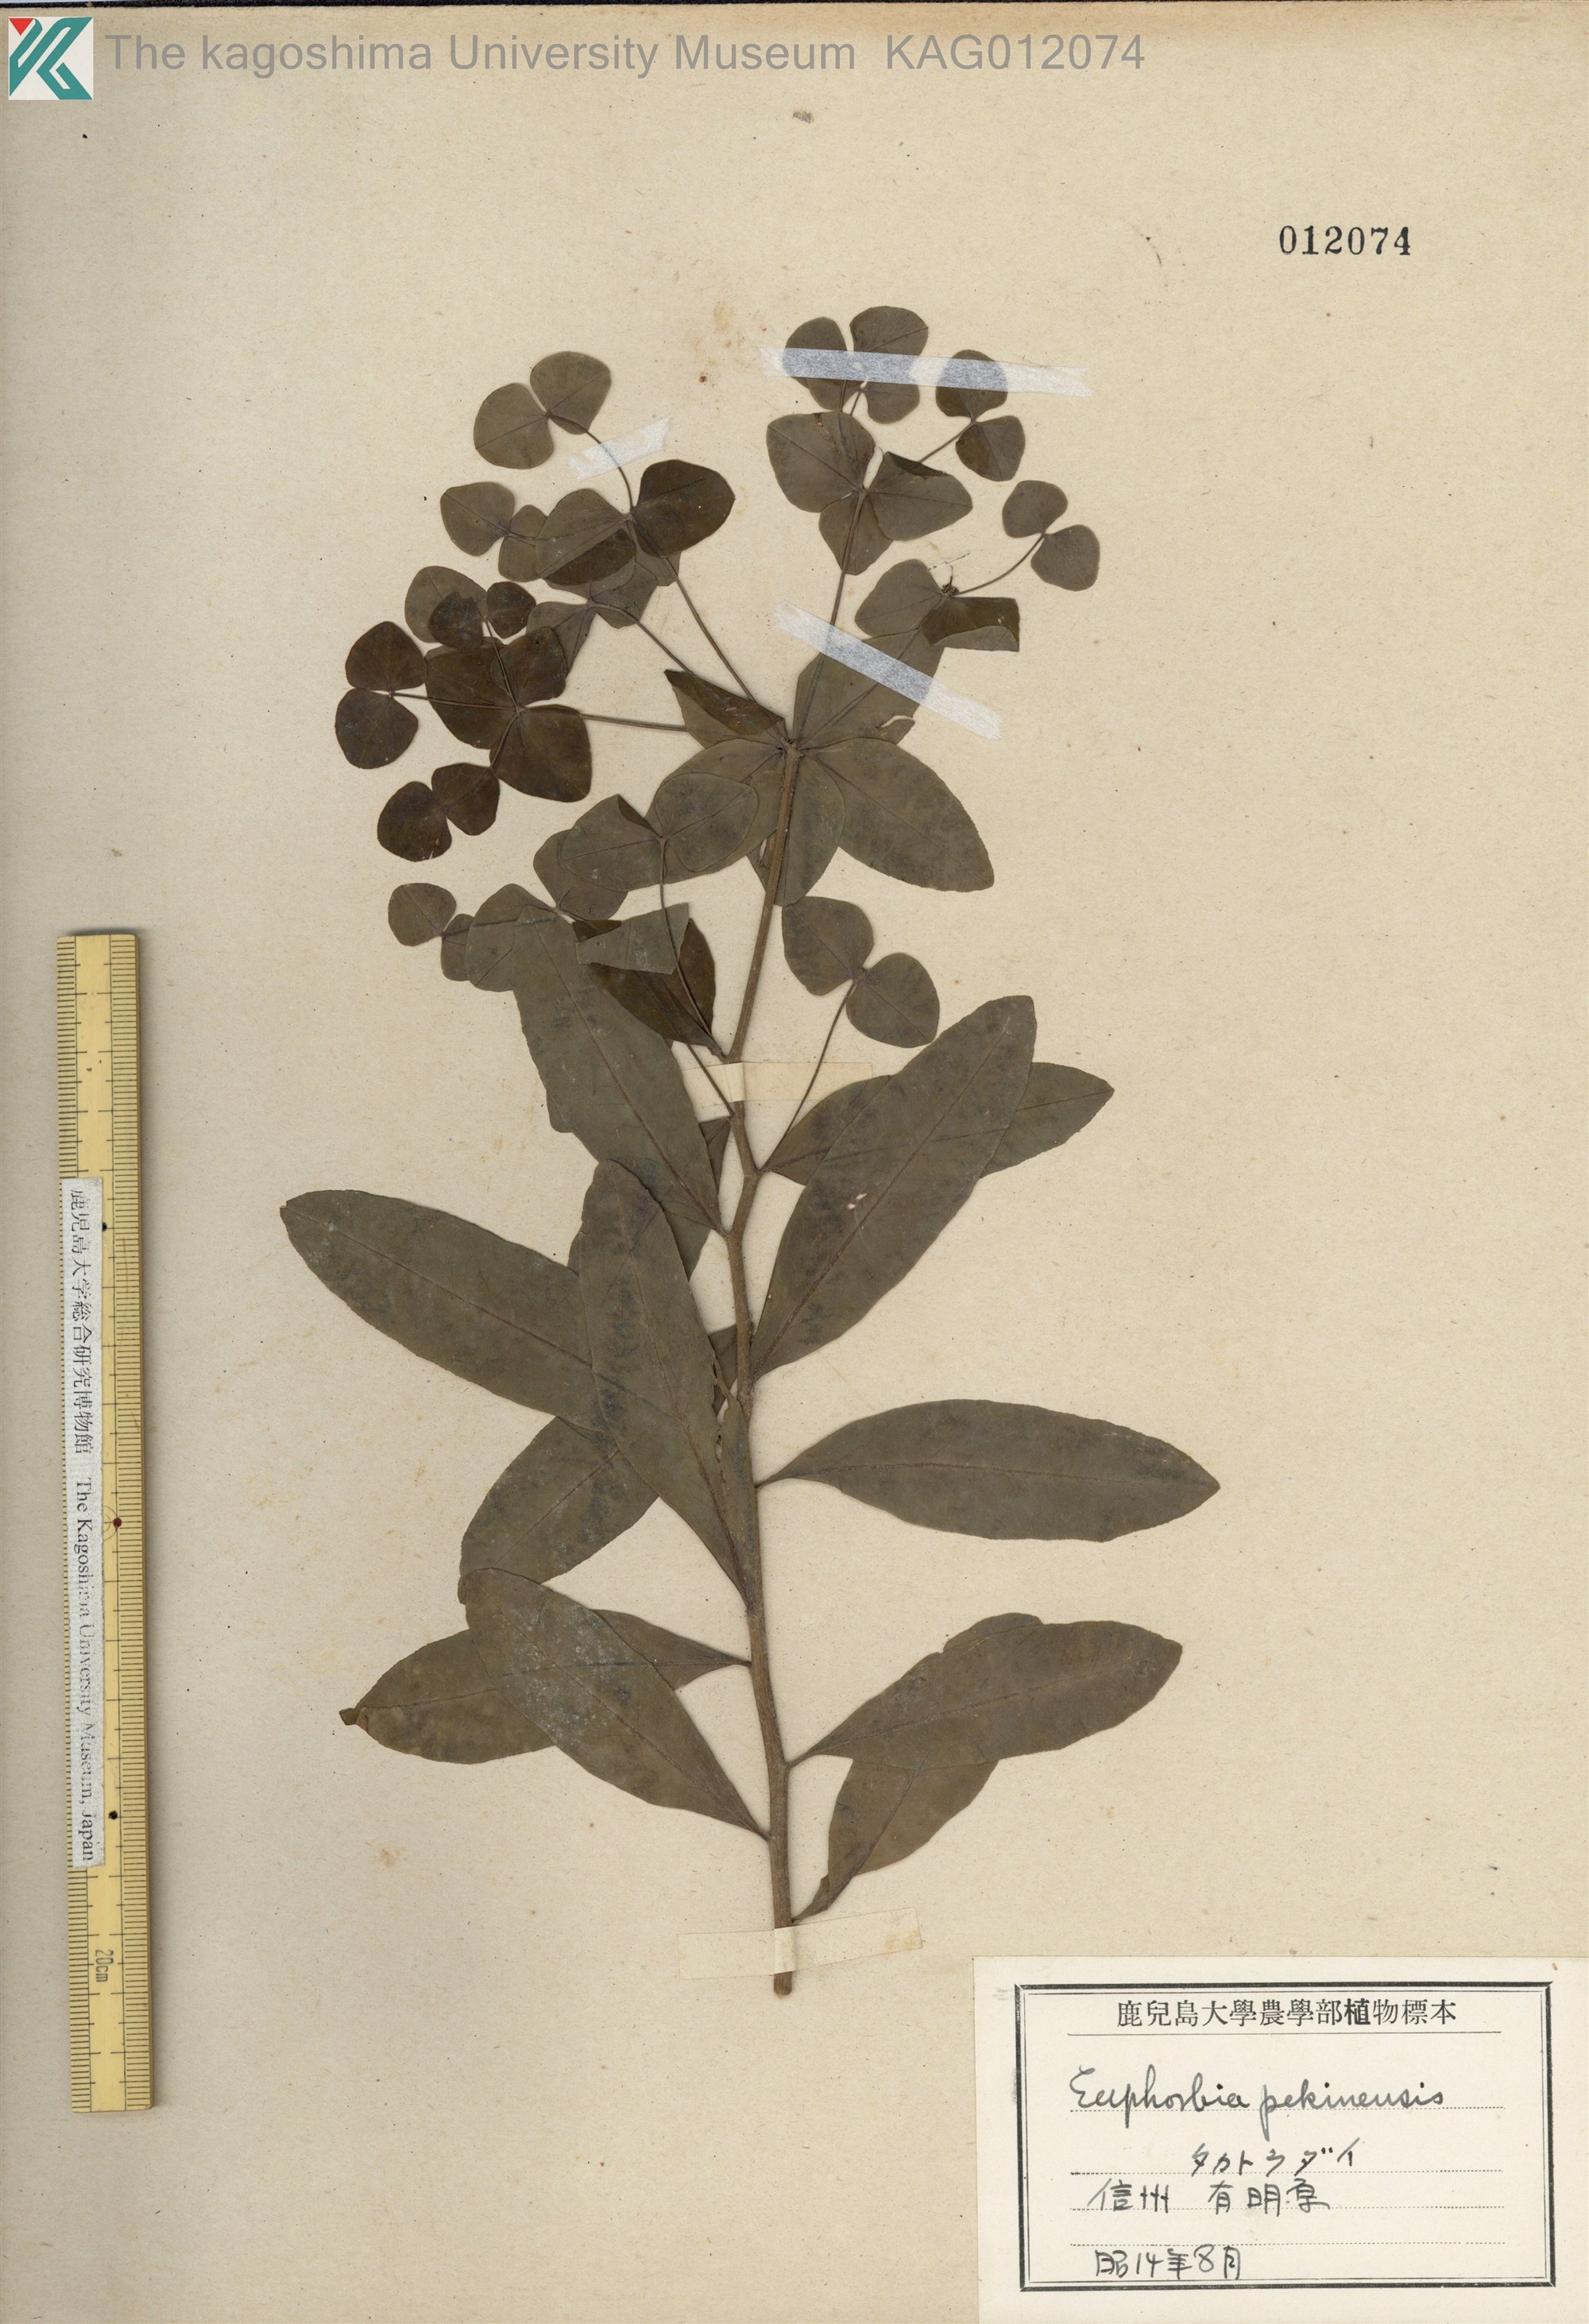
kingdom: Plantae
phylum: Tracheophyta
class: Magnoliopsida
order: Malpighiales
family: Euphorbiaceae
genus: Euphorbia
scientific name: Euphorbia pekinensis
